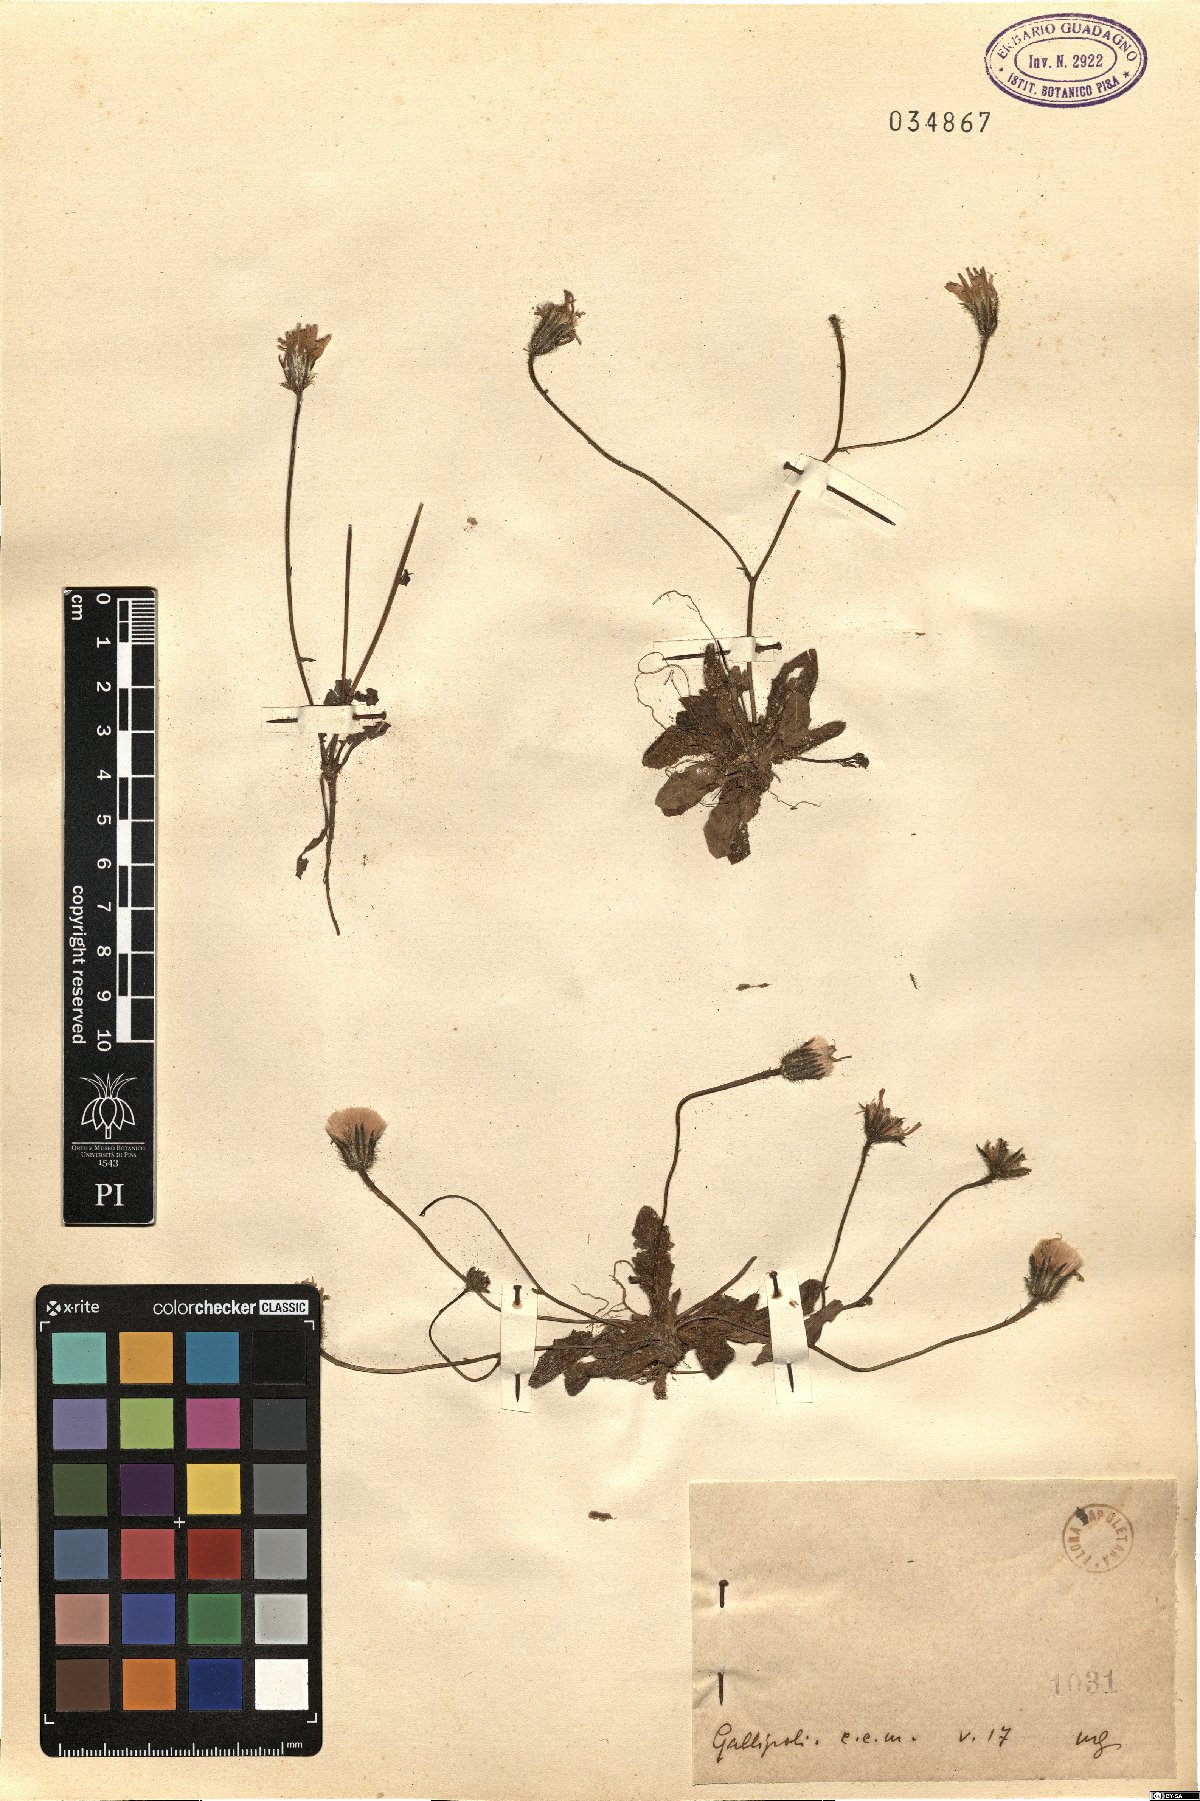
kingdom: Plantae
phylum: Tracheophyta
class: Magnoliopsida
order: Asterales
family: Asteraceae
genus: Hypochaeris
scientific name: Hypochaeris
